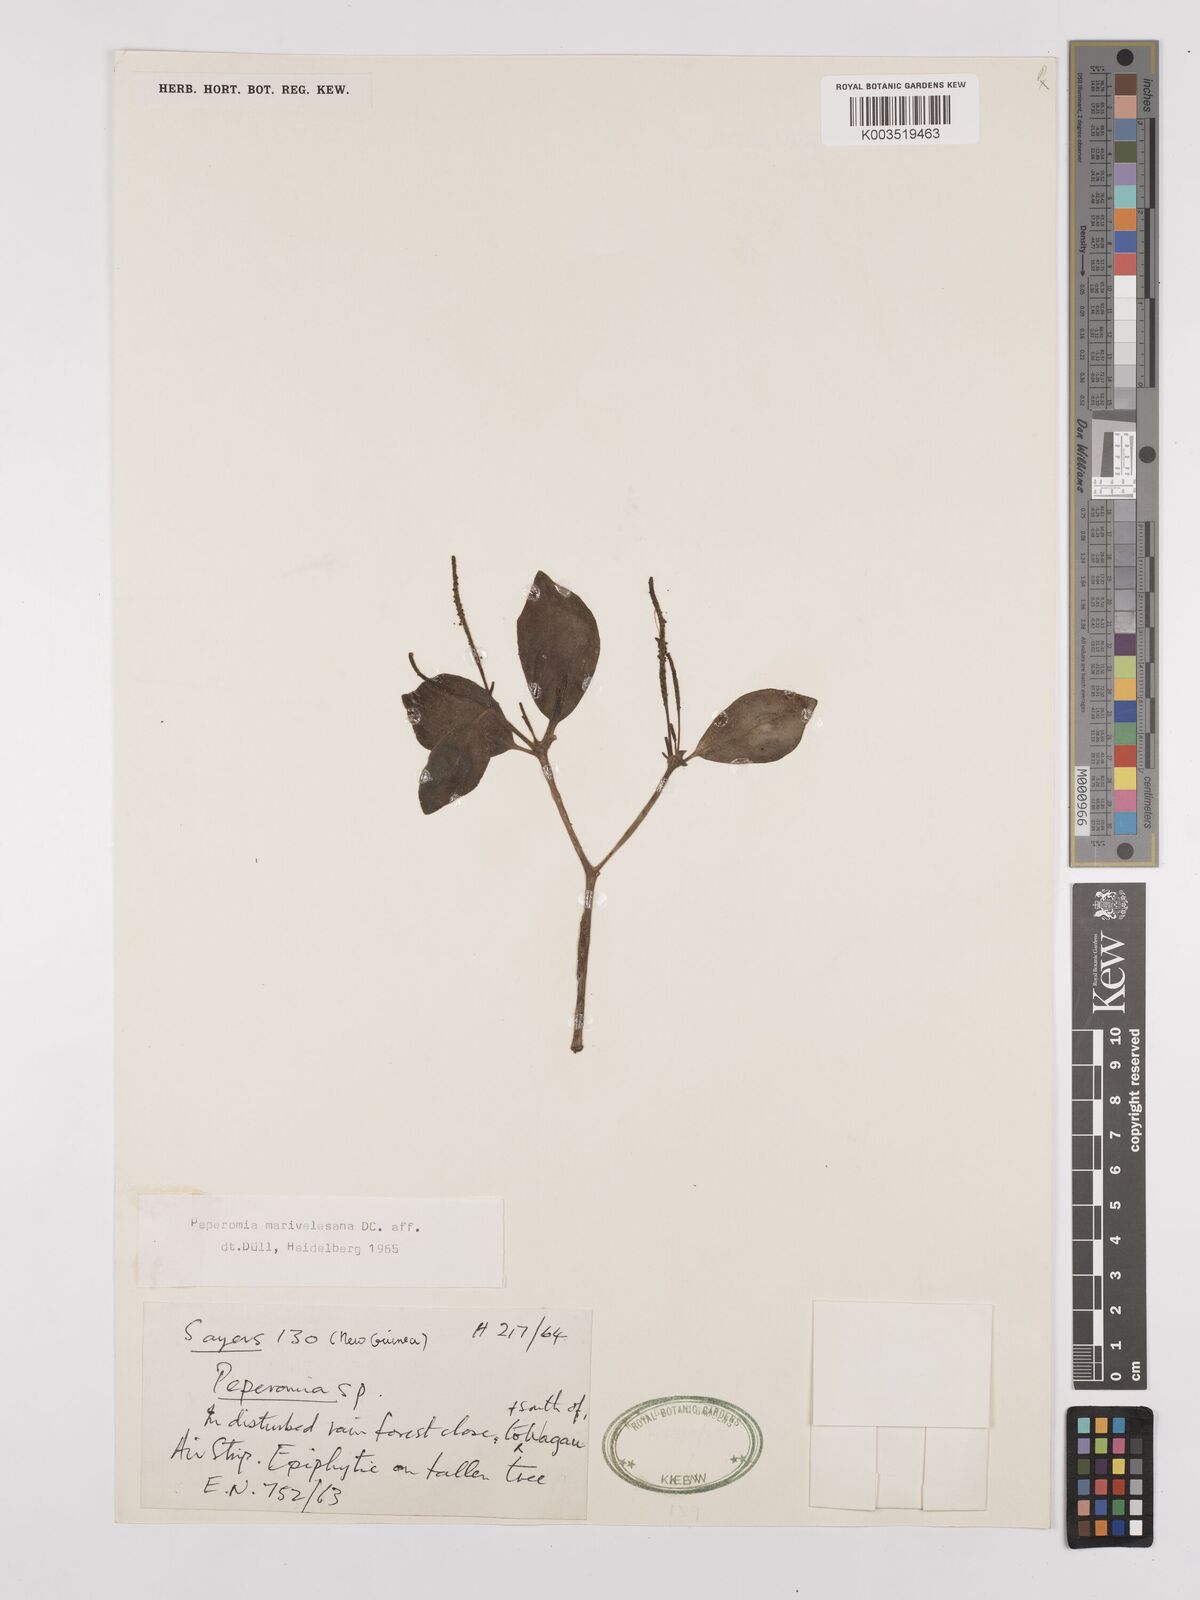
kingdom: Plantae
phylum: Tracheophyta
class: Magnoliopsida
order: Piperales
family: Piperaceae
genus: Peperomia
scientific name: Peperomia marivelesana
